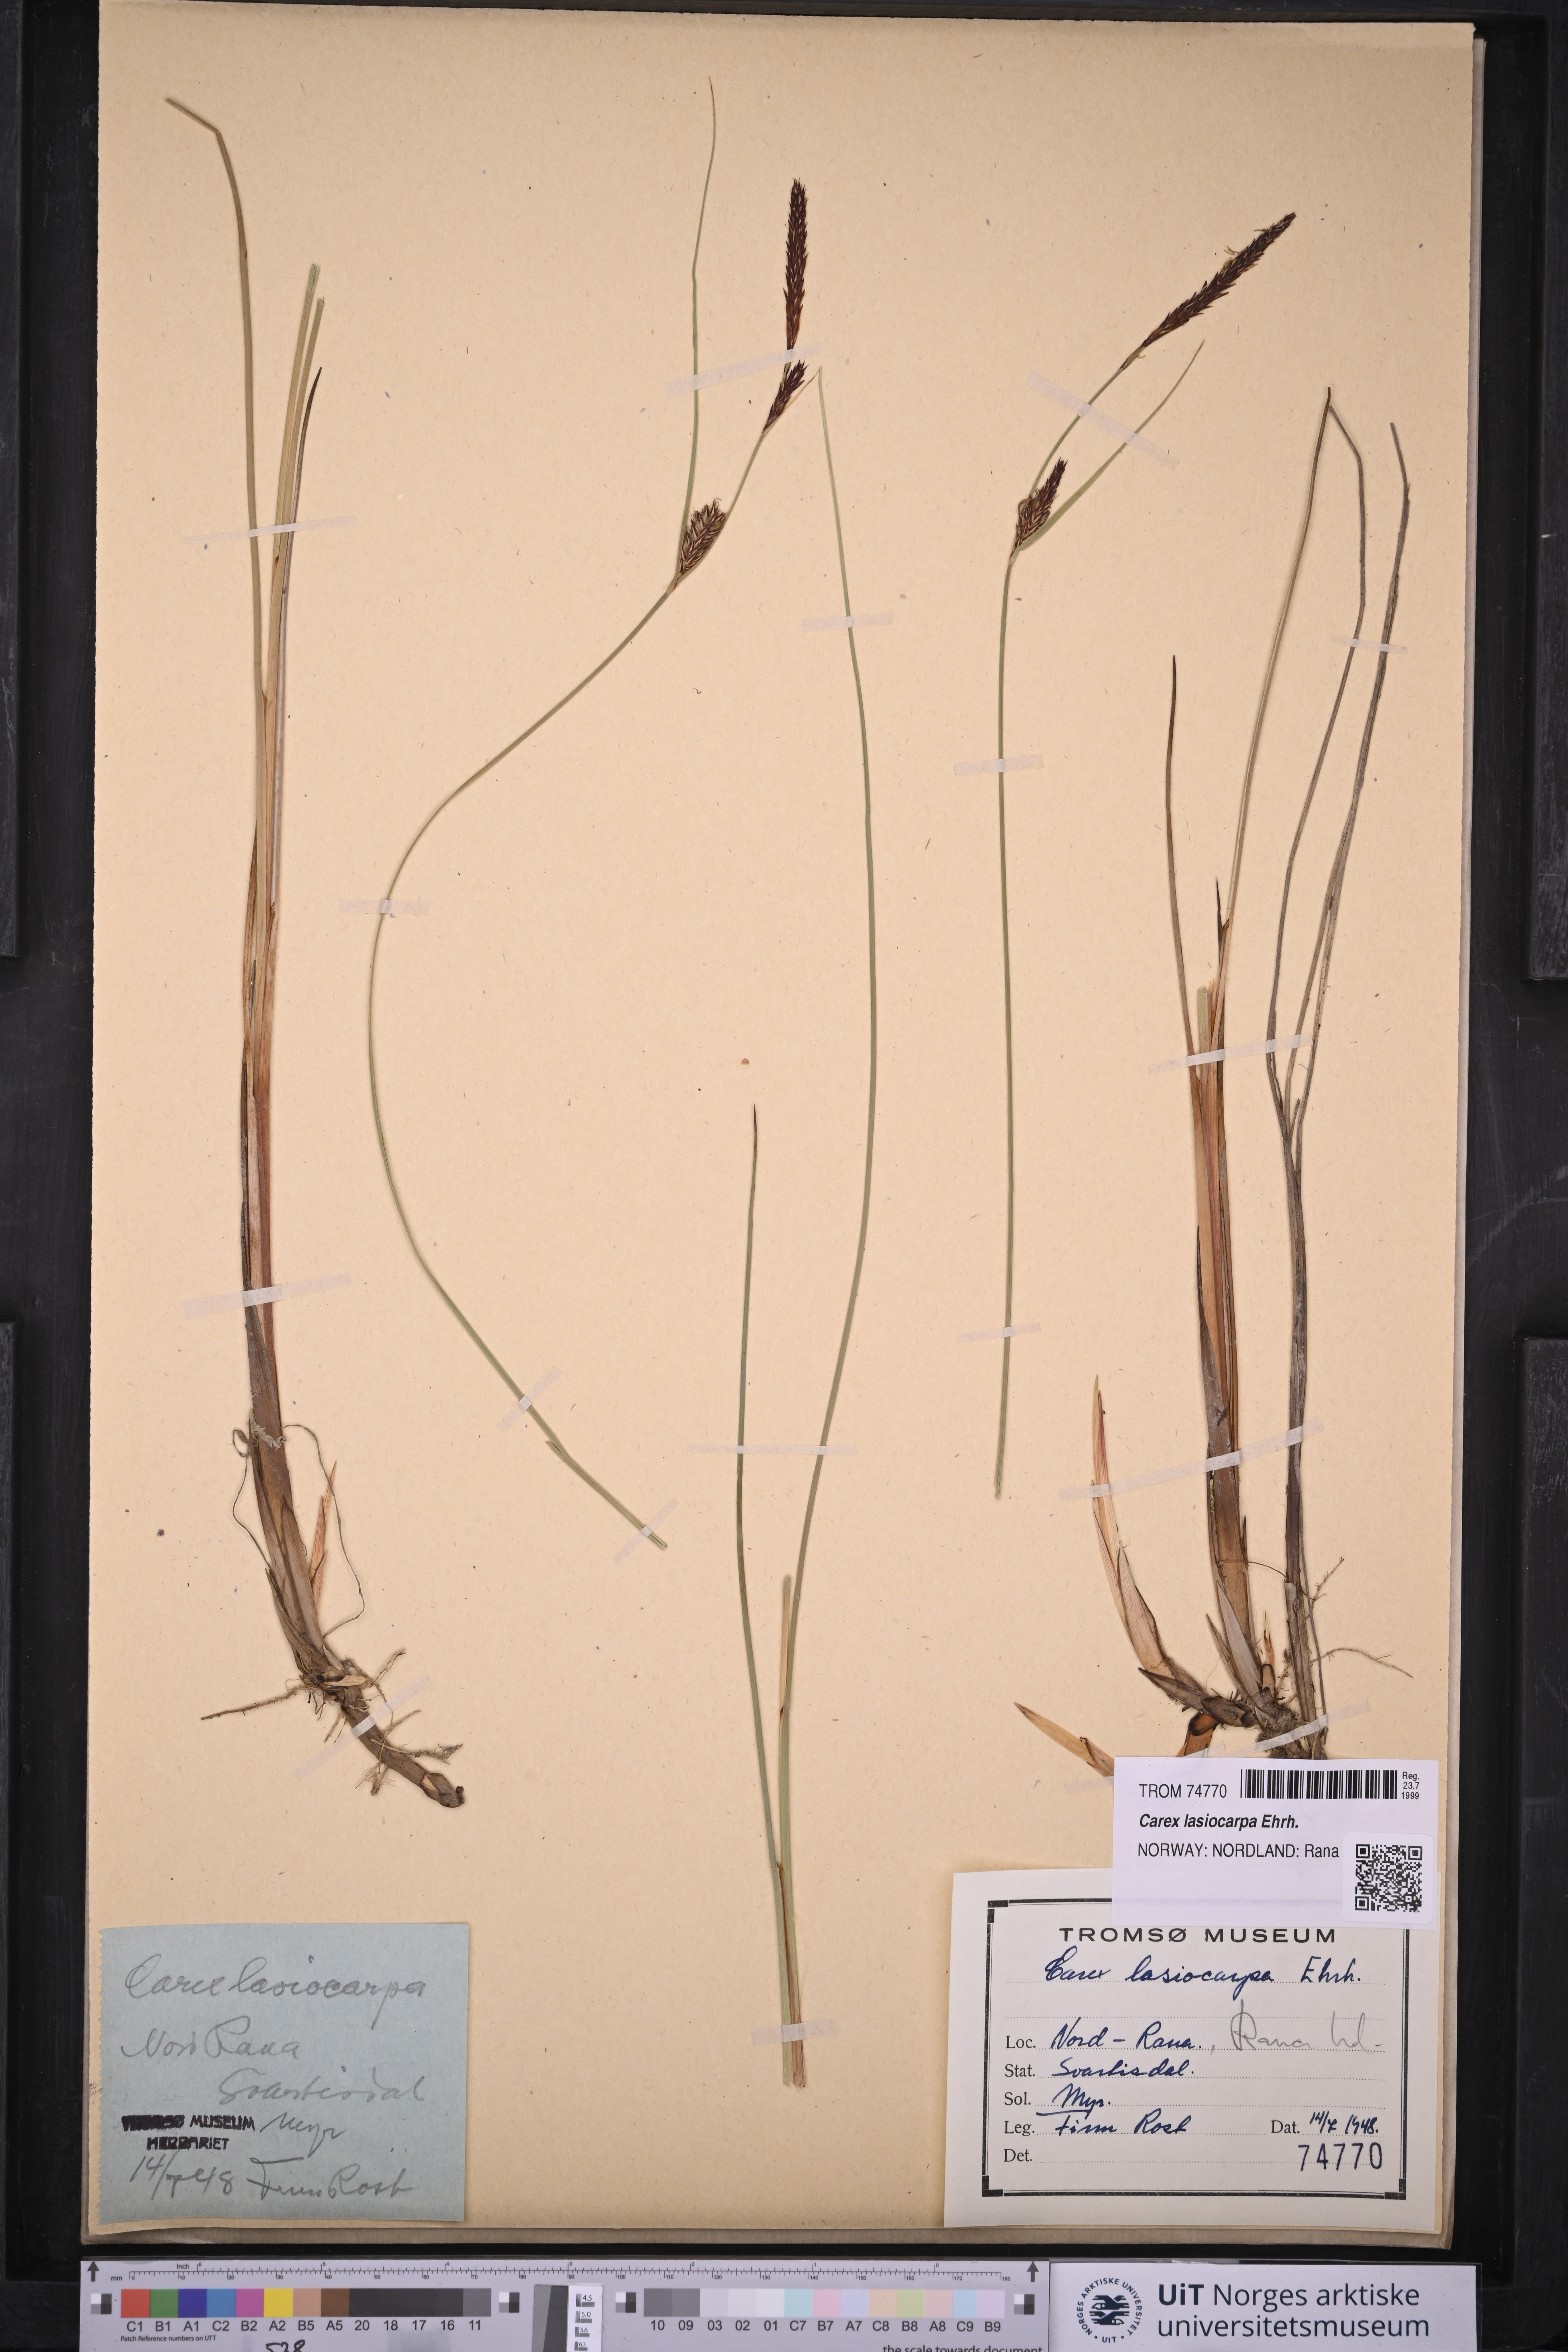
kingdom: Plantae
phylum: Tracheophyta
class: Liliopsida
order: Poales
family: Cyperaceae
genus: Carex
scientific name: Carex lasiocarpa
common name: Slender sedge
